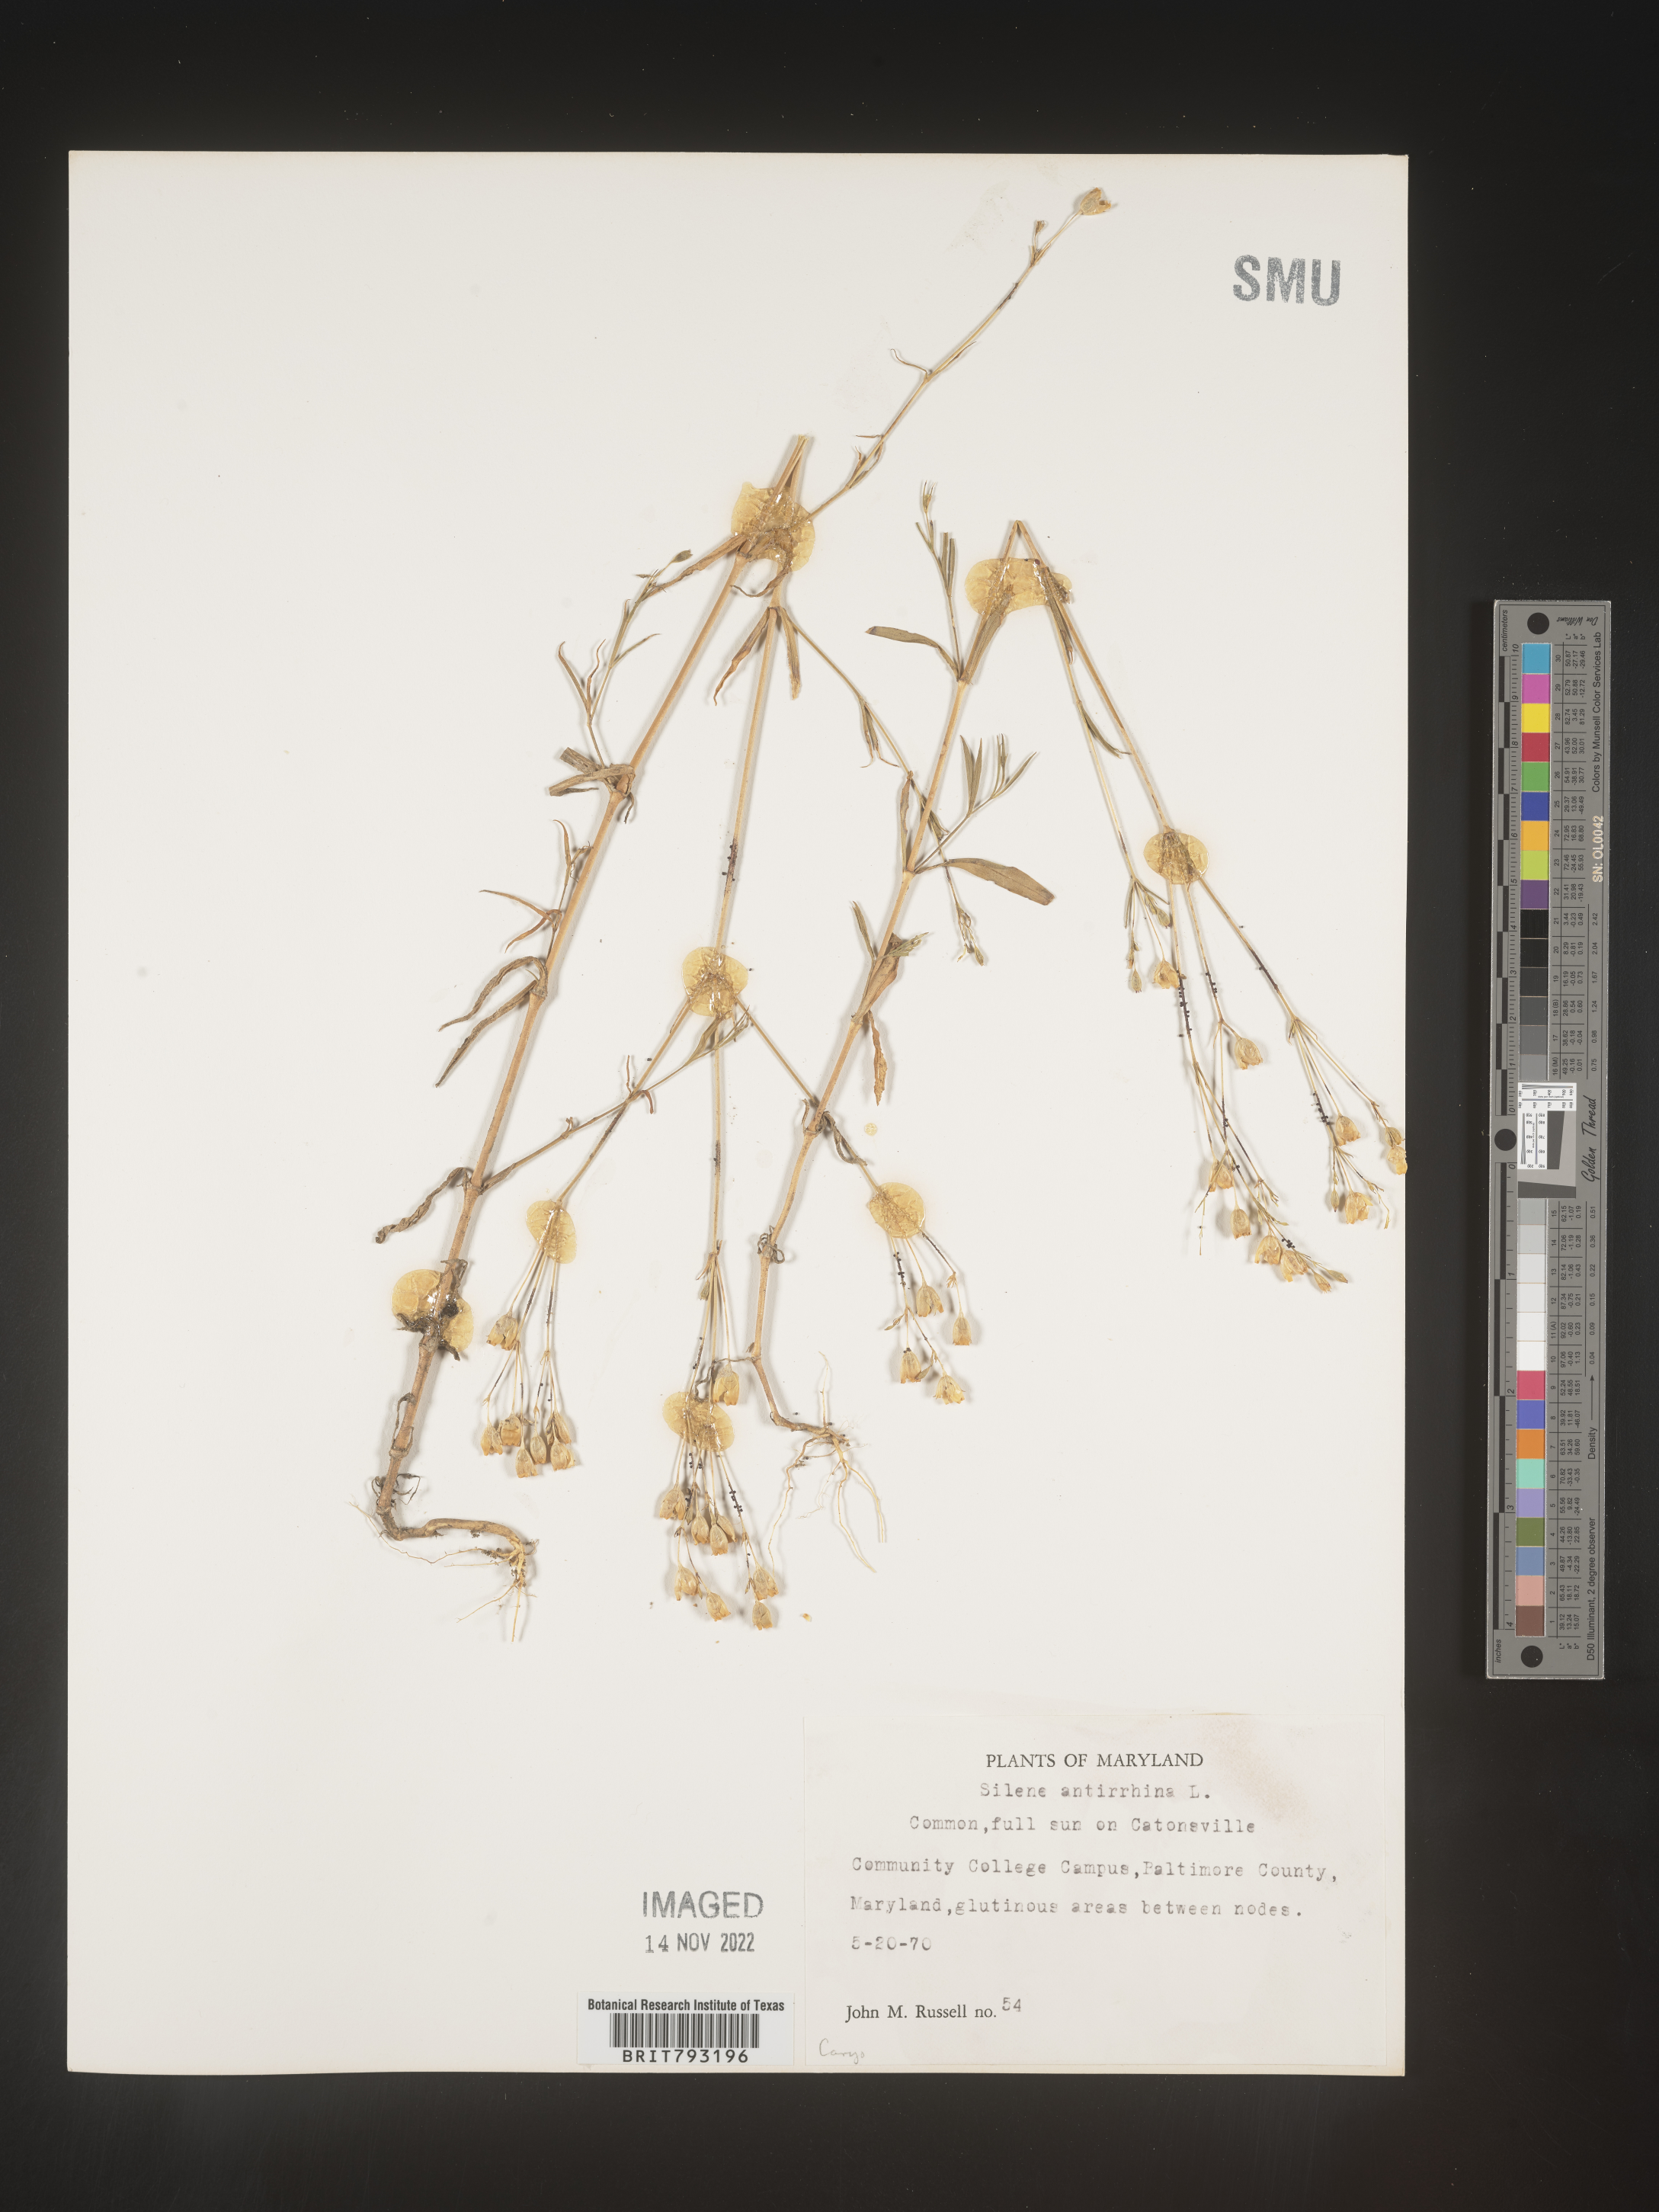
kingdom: Plantae
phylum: Tracheophyta
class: Magnoliopsida
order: Caryophyllales
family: Caryophyllaceae
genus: Silene
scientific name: Silene antirrhina
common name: Sleepy catchfly
